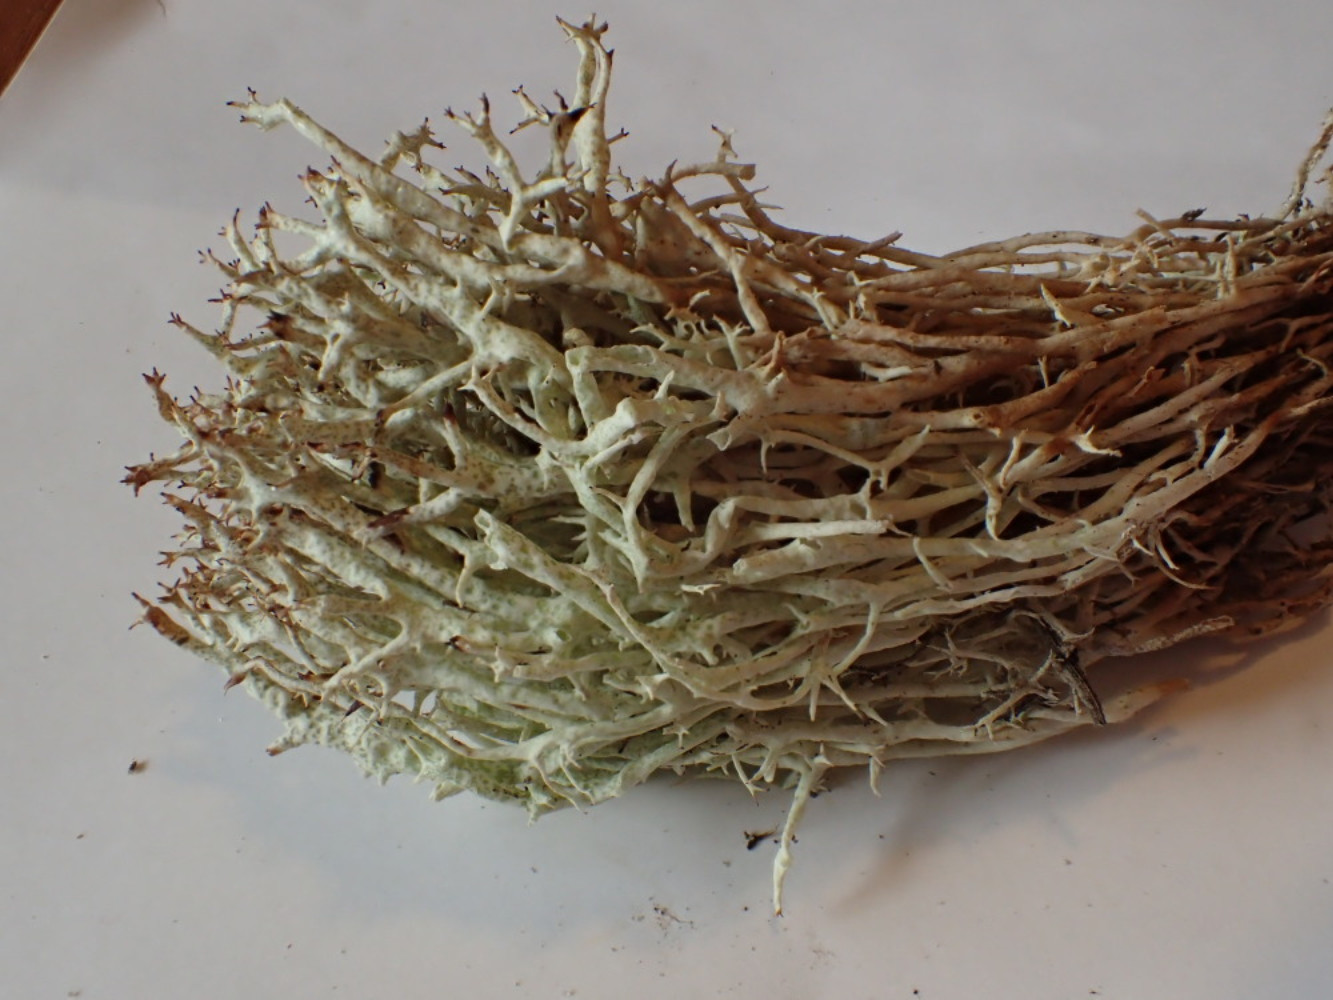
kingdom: Fungi
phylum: Ascomycota
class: Lecanoromycetes
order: Lecanorales
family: Cladoniaceae
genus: Cladonia
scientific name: Cladonia uncialis
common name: pigget bægerlav
